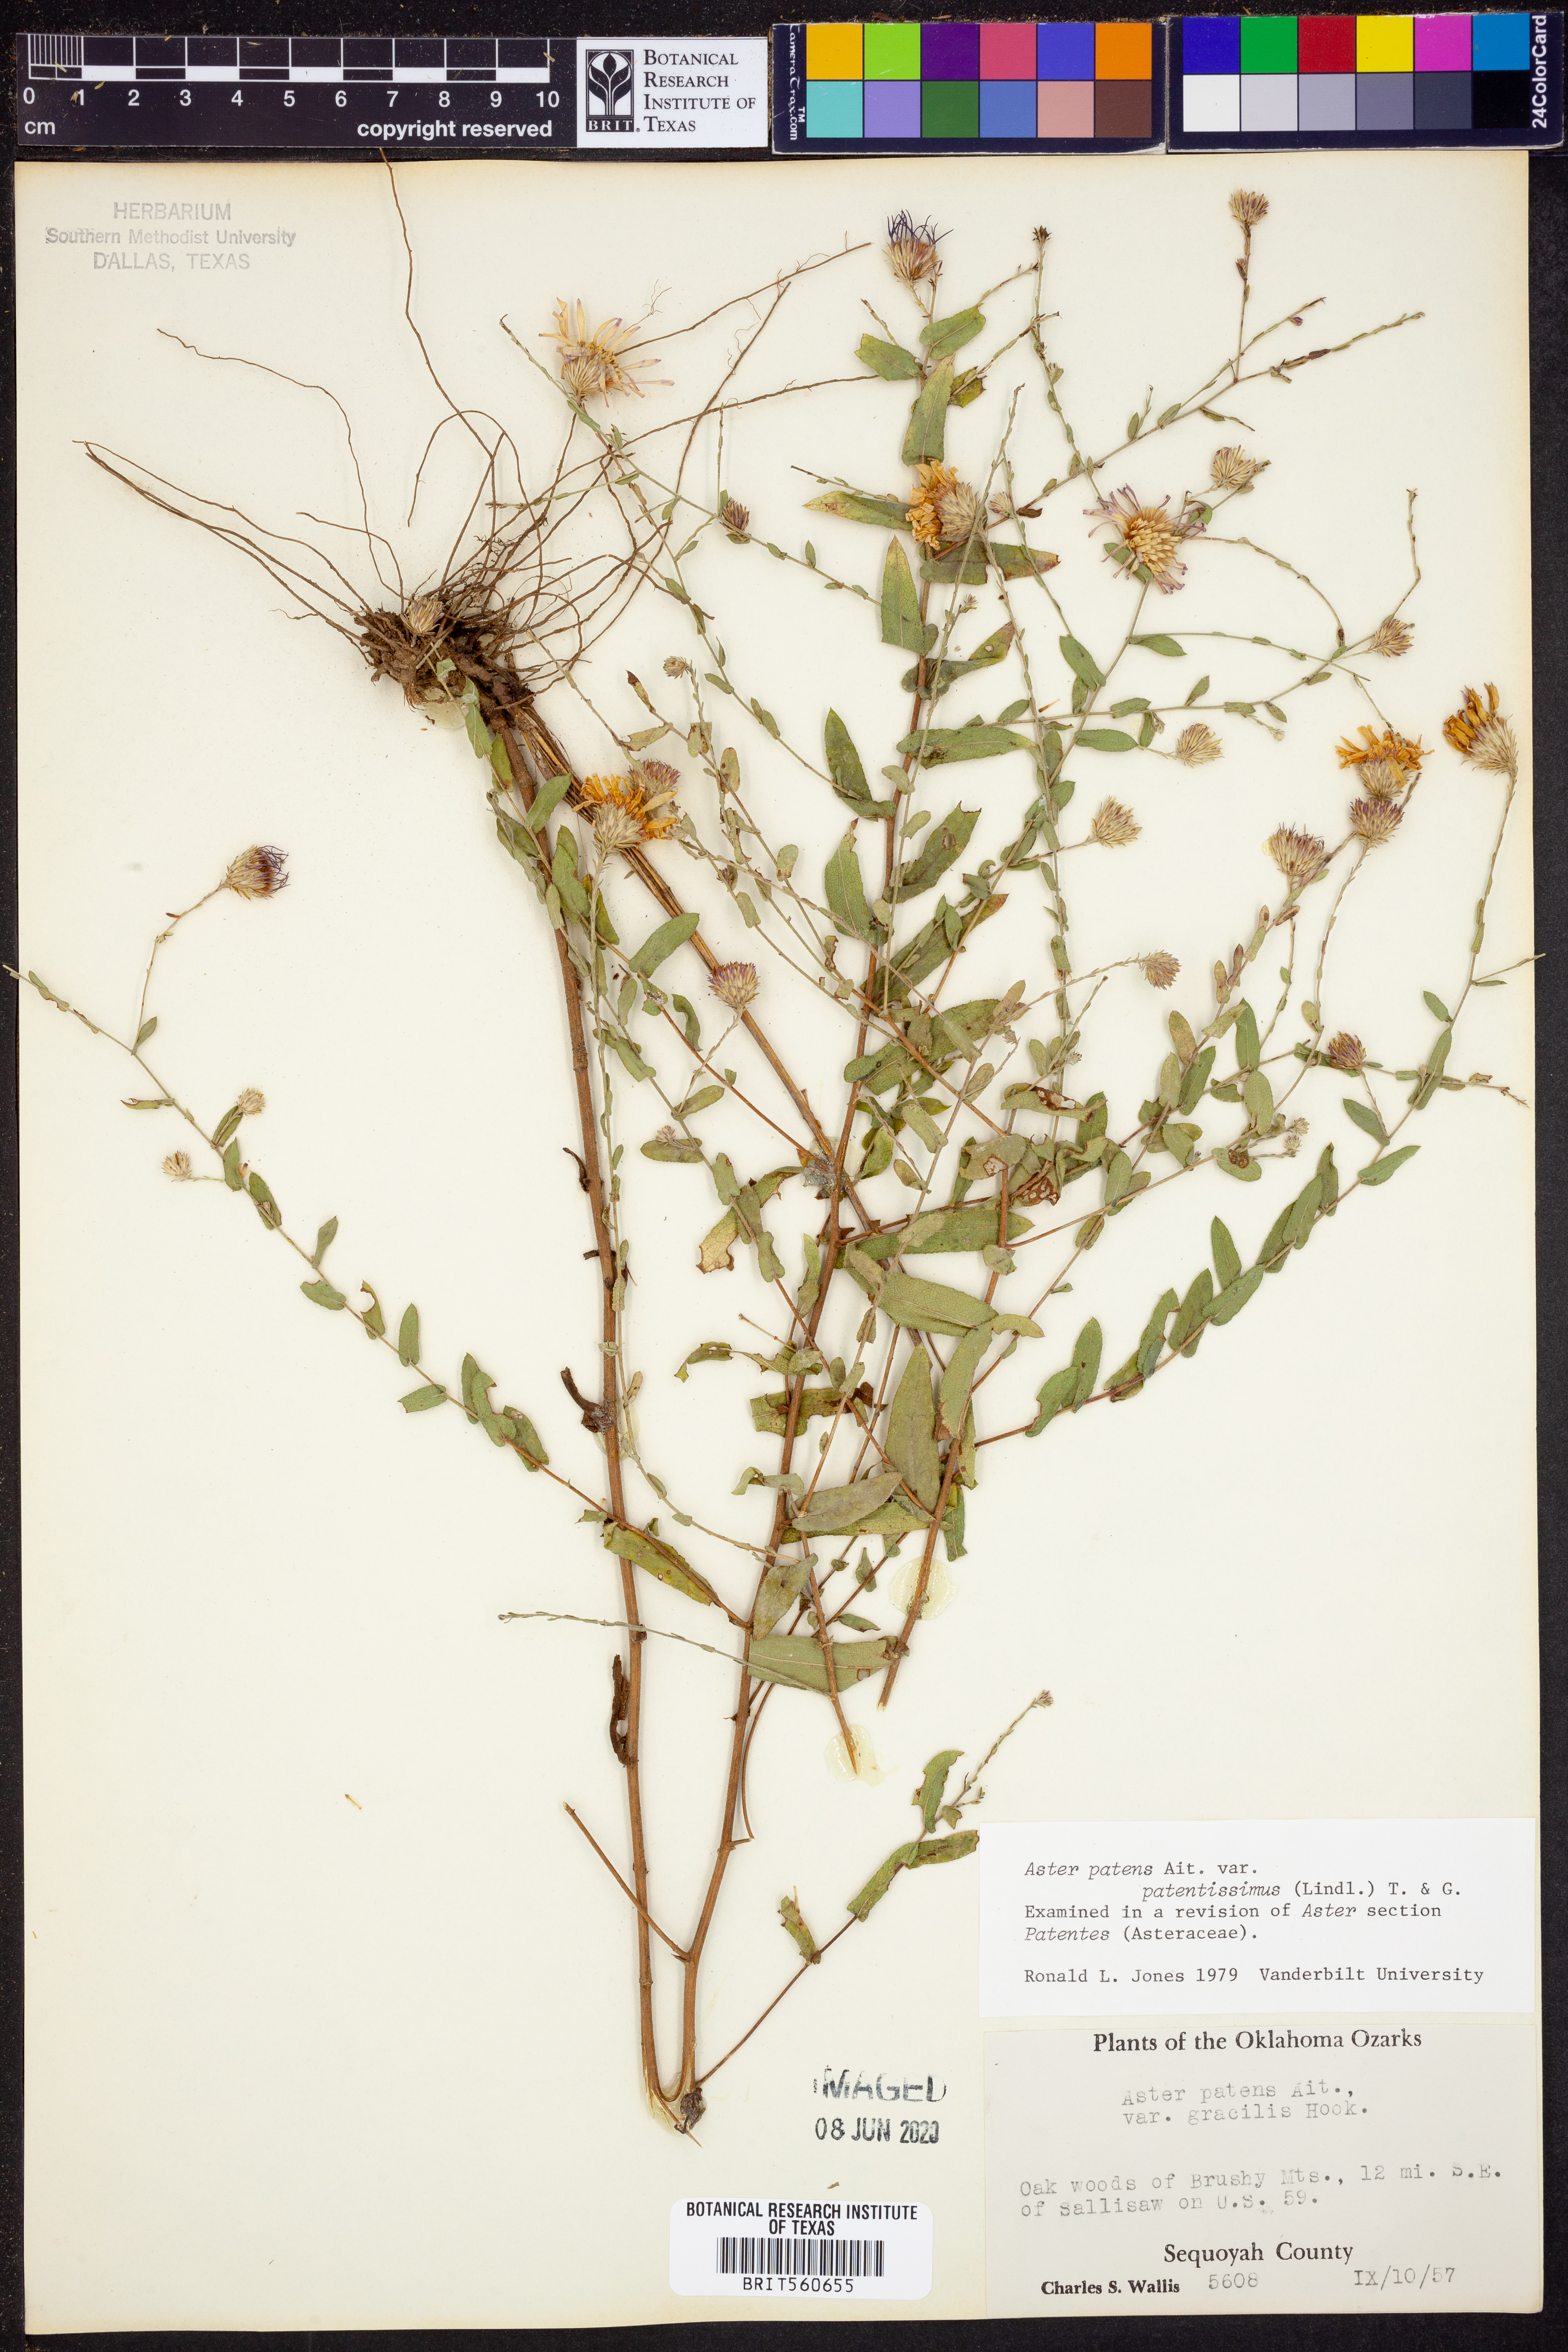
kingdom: Plantae
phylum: Tracheophyta
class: Magnoliopsida
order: Asterales
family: Asteraceae
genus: Symphyotrichum
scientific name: Symphyotrichum patens
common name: Late purple aster
